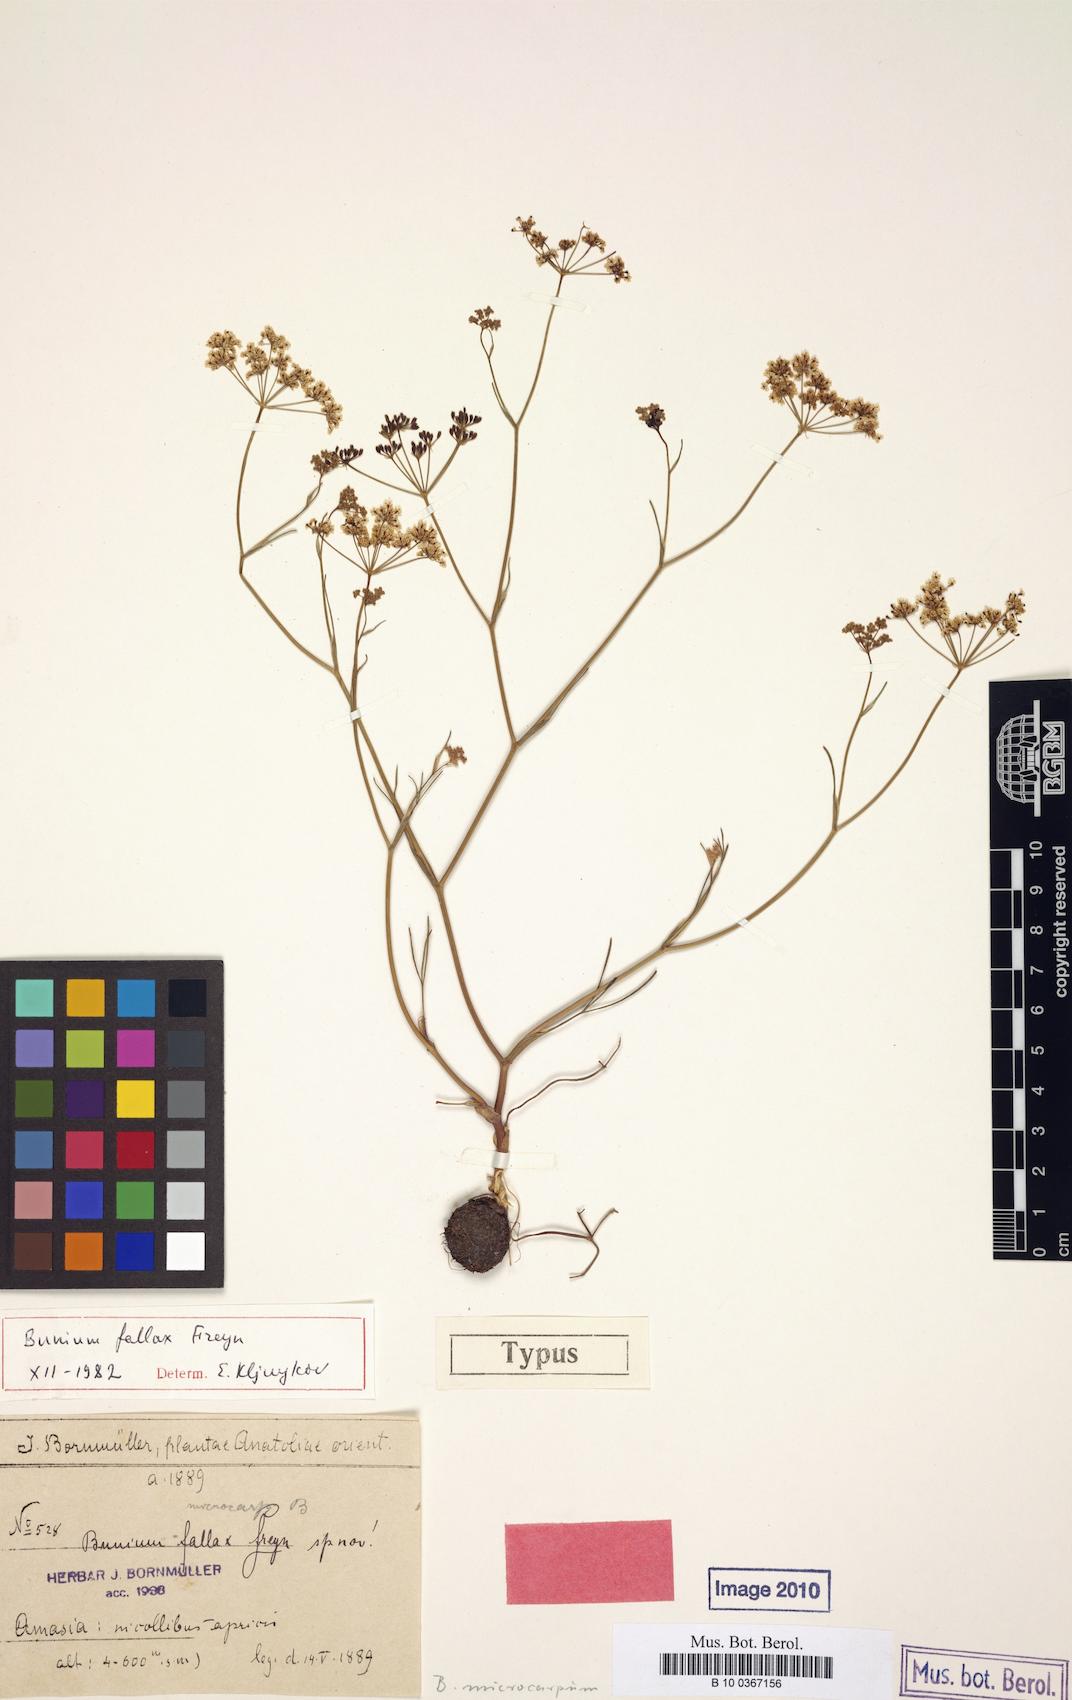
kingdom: Plantae
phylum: Tracheophyta
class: Magnoliopsida
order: Apiales
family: Apiaceae
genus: Bunium
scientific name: Bunium microcarpum
